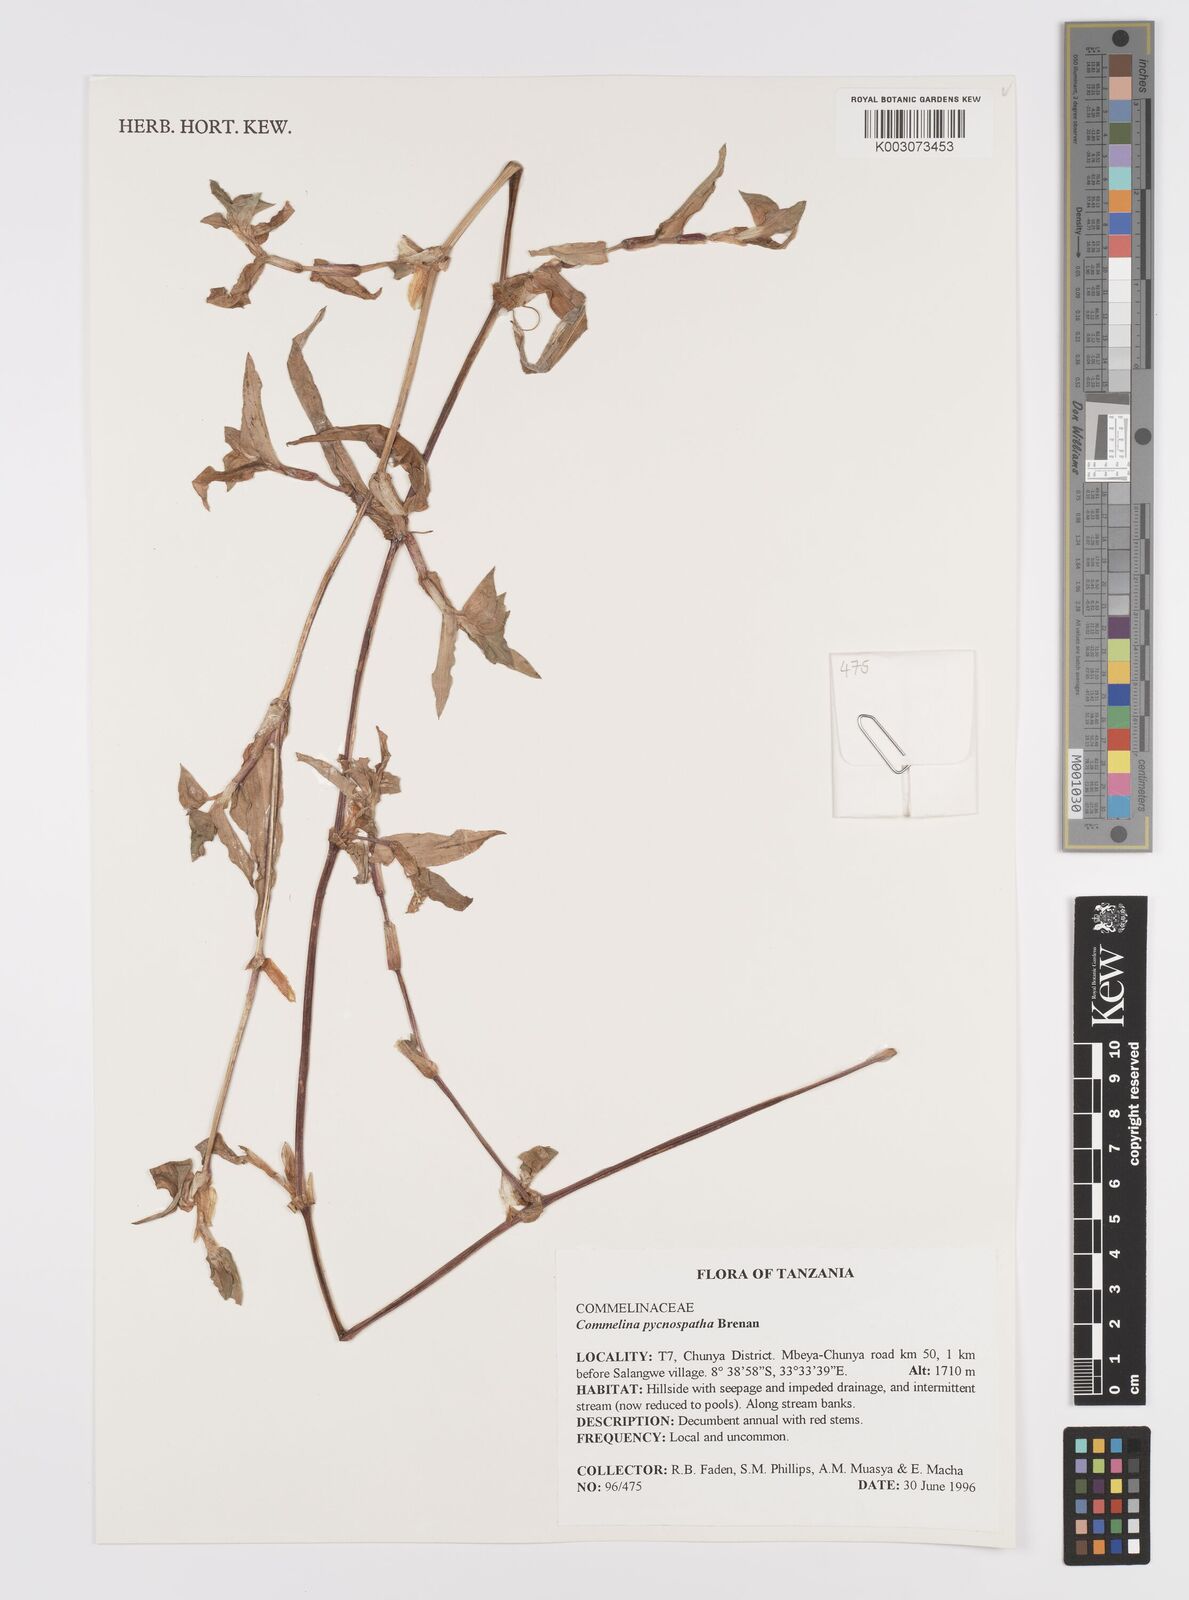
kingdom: Plantae
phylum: Tracheophyta
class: Liliopsida
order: Commelinales
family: Commelinaceae
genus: Commelina
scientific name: Commelina pycnospatha
